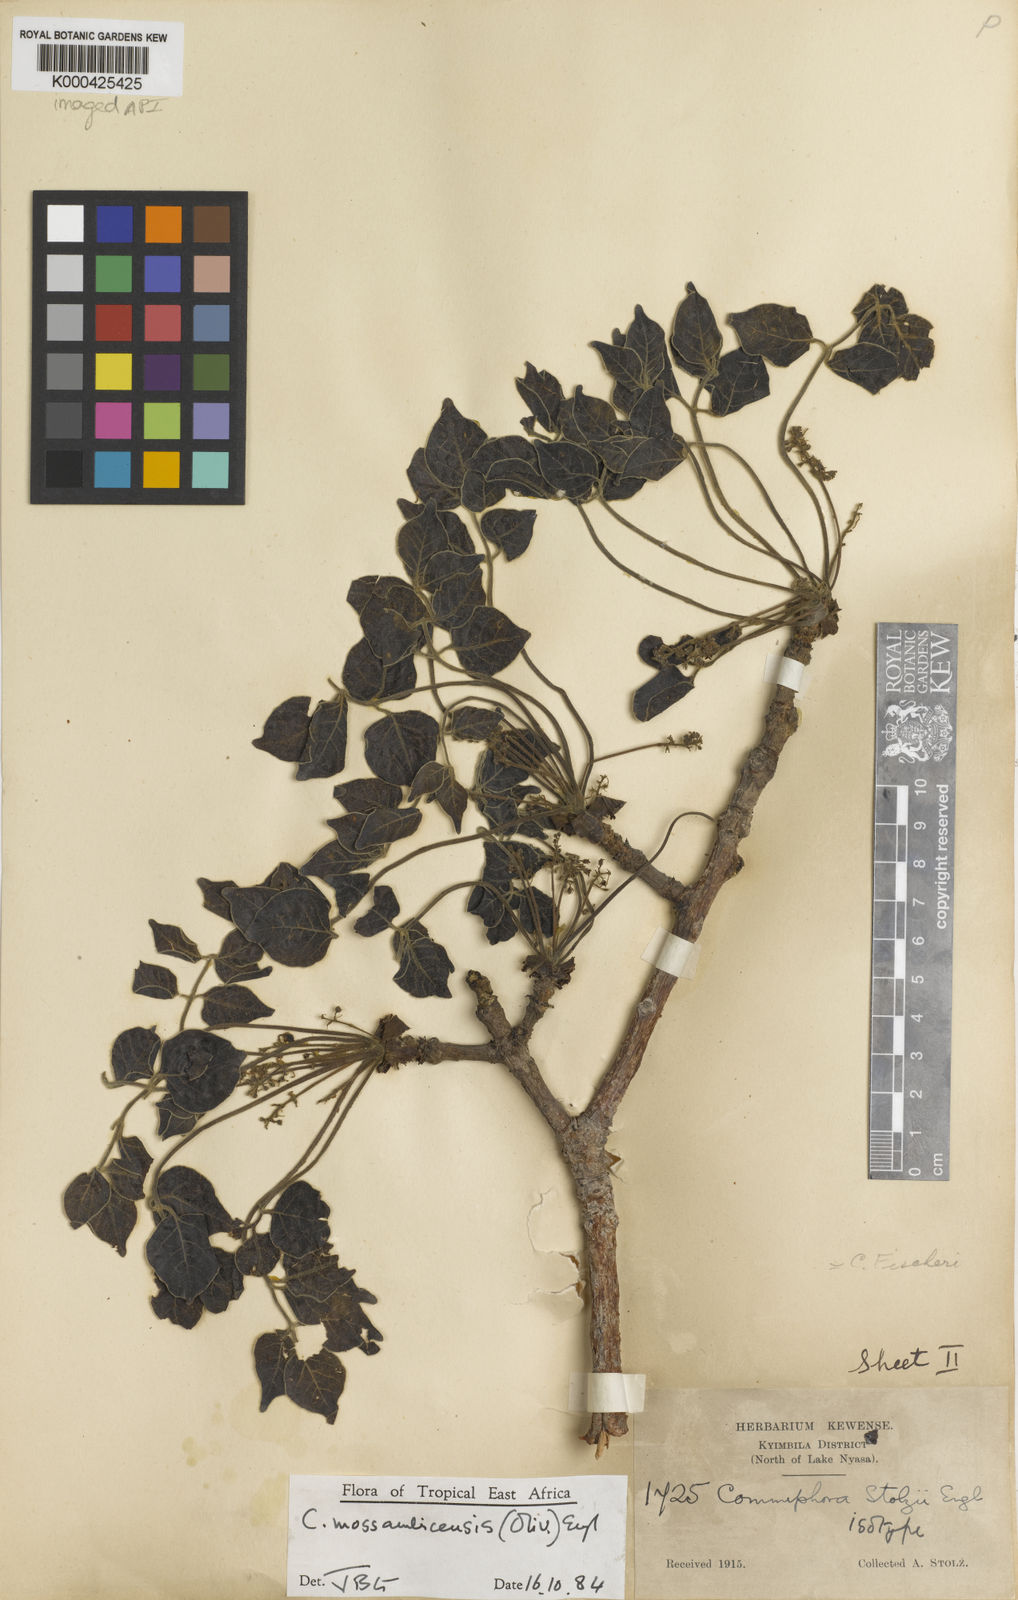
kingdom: Plantae
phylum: Tracheophyta
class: Magnoliopsida
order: Sapindales
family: Burseraceae
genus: Commiphora
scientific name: Commiphora mossambicensis
